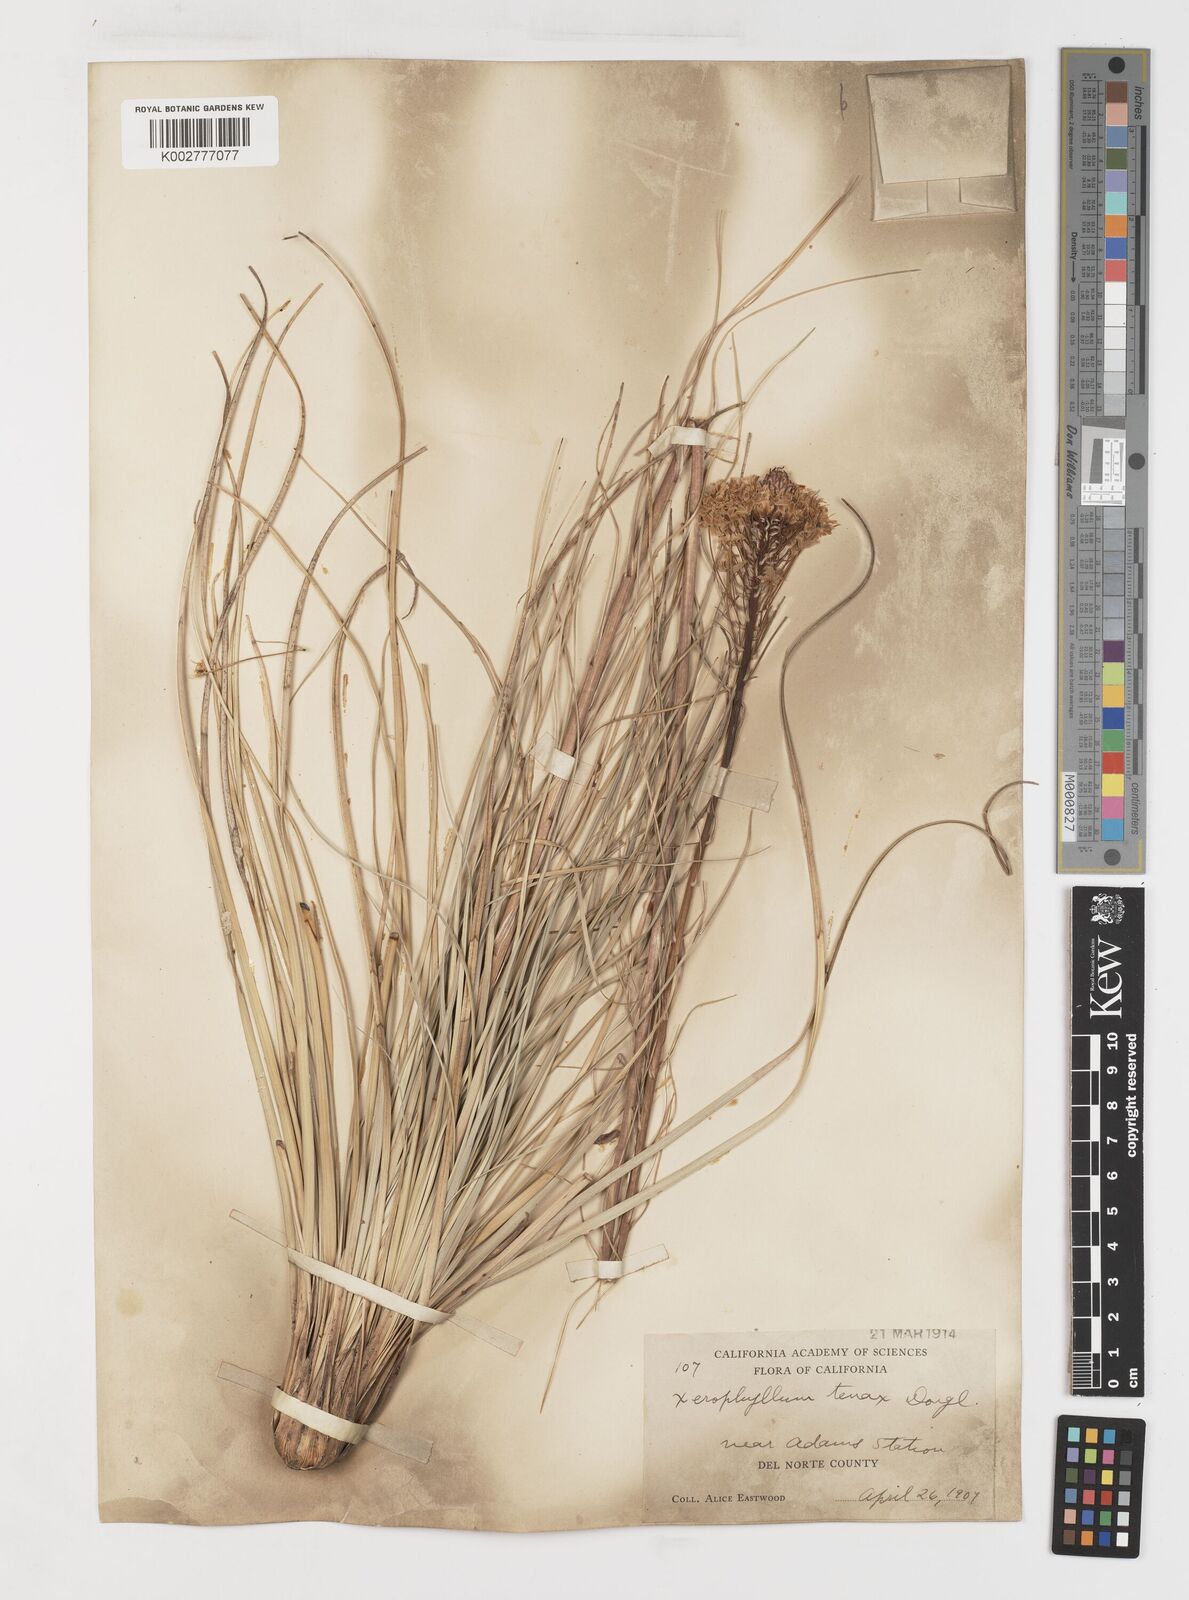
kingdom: Plantae
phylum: Tracheophyta
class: Liliopsida
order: Liliales
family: Melanthiaceae
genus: Xerophyllum
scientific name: Xerophyllum tenax
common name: Bear-grass
